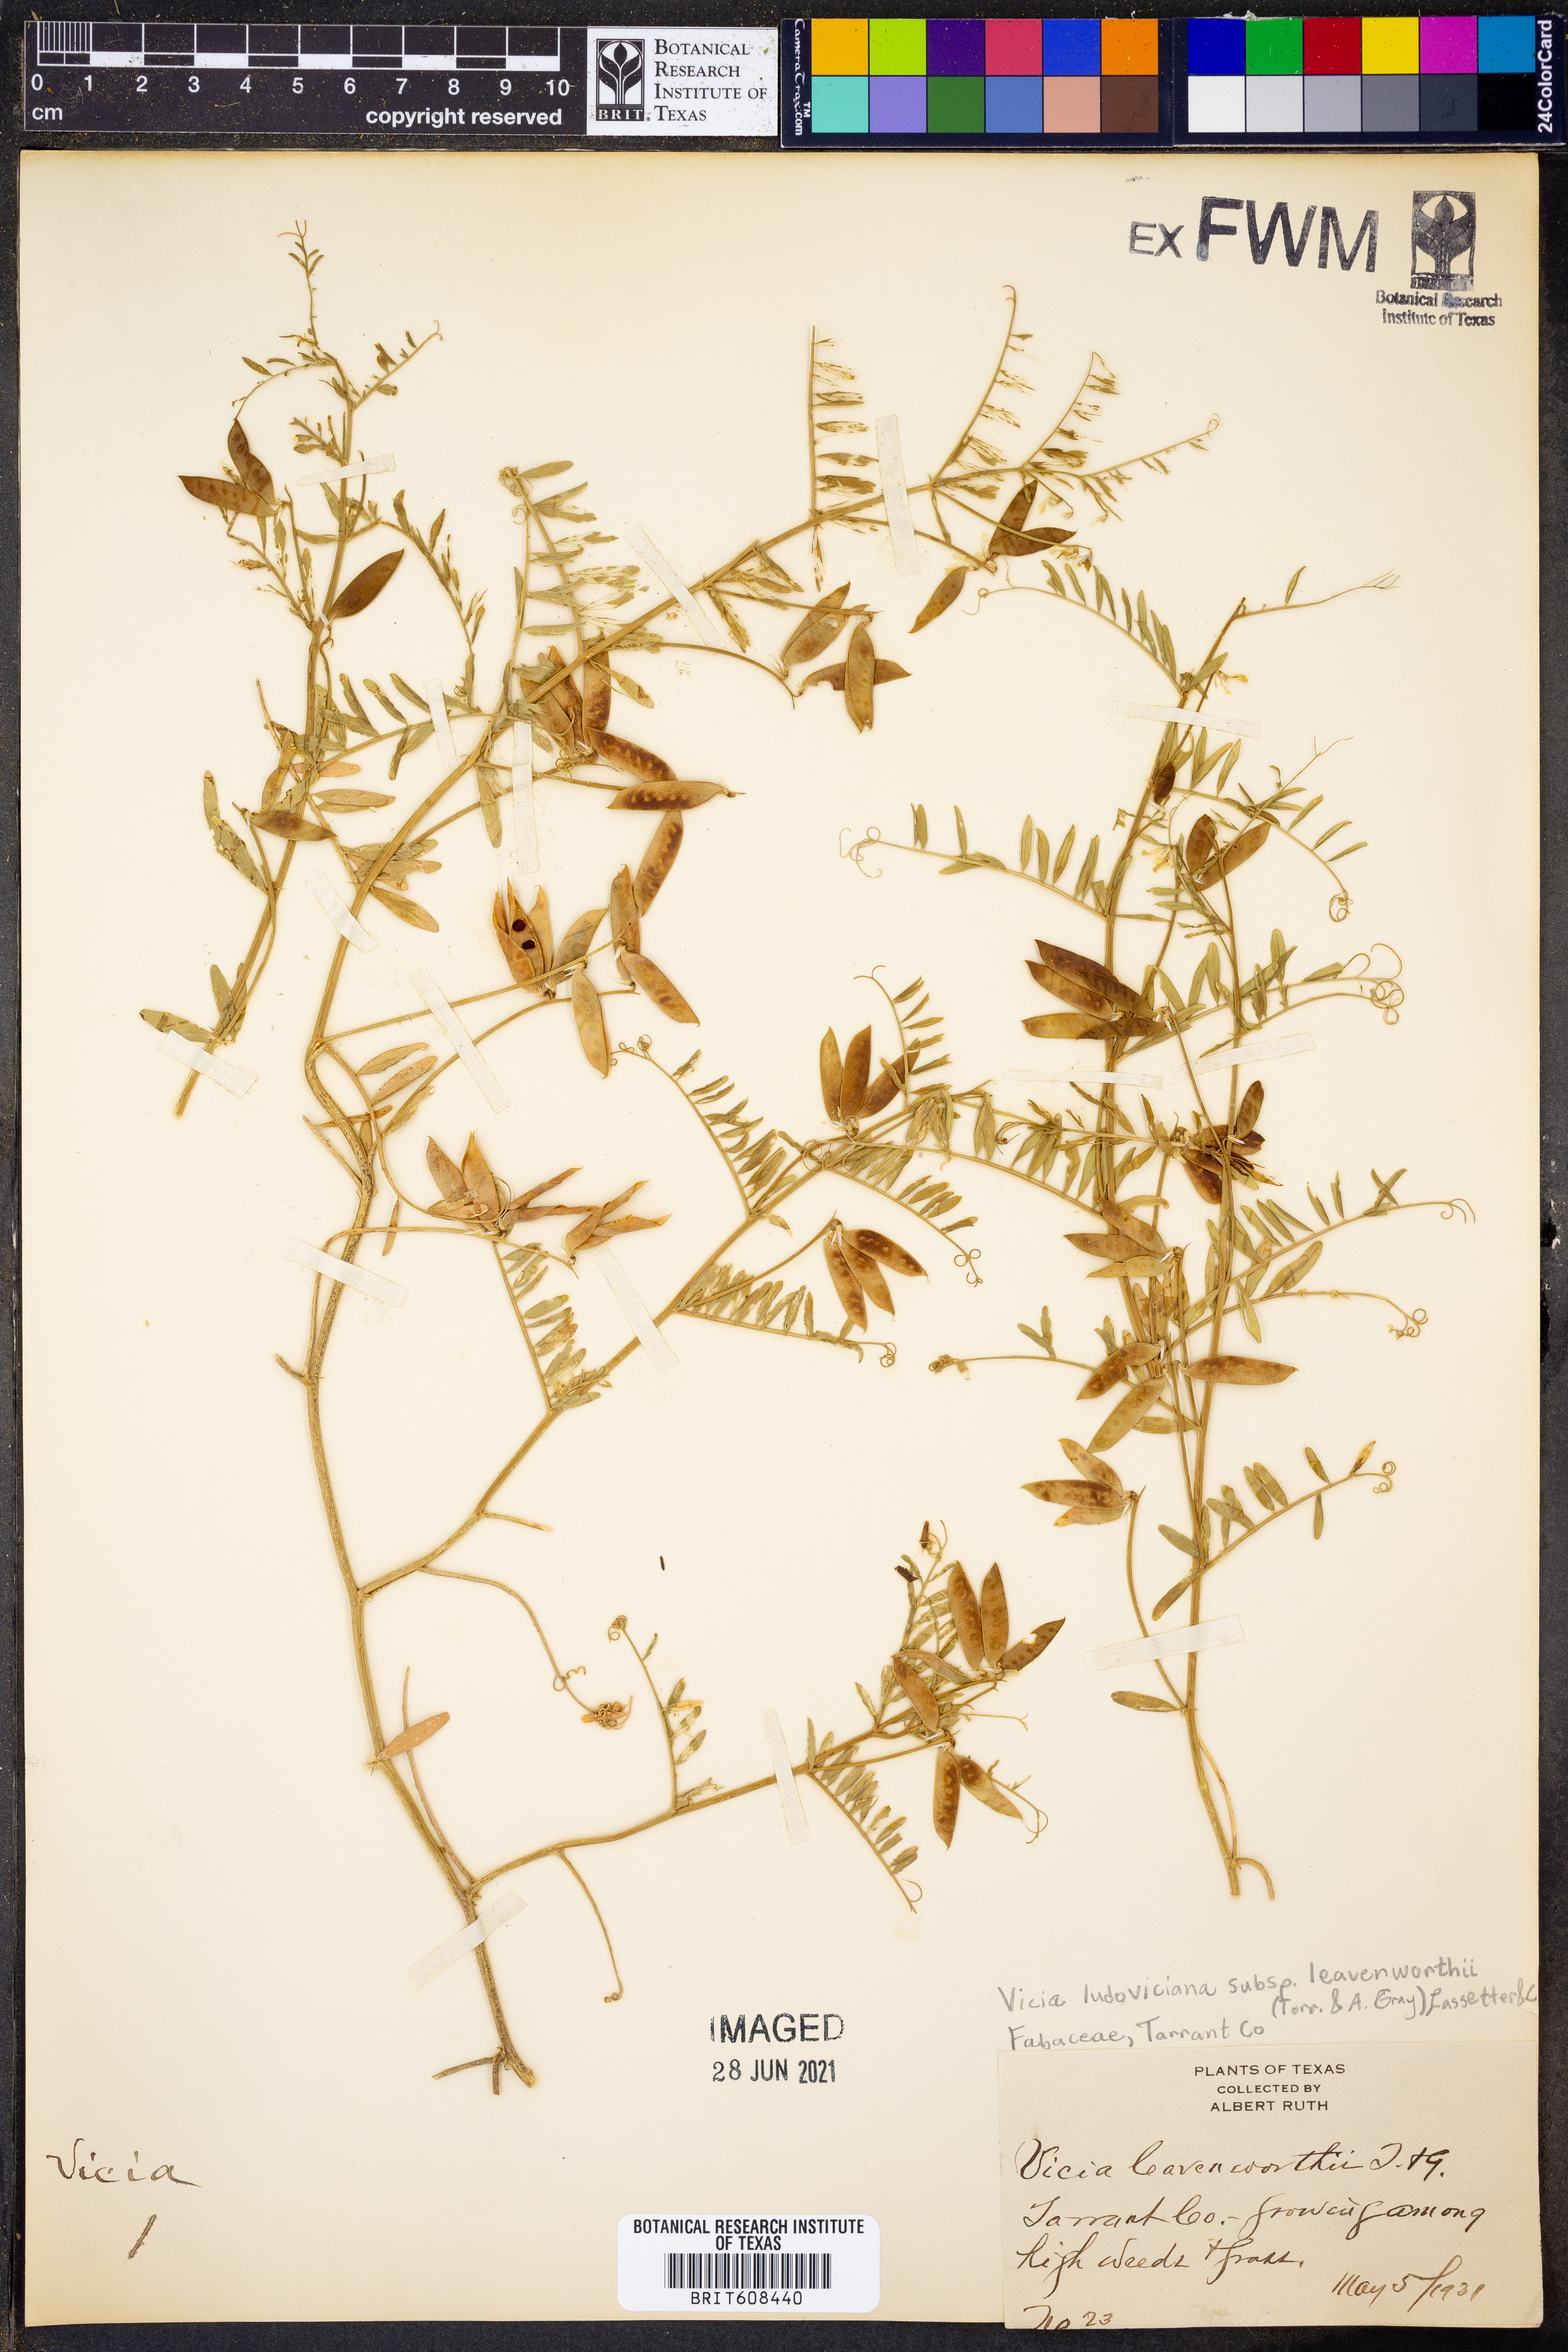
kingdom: Plantae
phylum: Tracheophyta
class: Magnoliopsida
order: Fabales
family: Fabaceae
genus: Vicia
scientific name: Vicia ludoviciana
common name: Louisiana vetch
